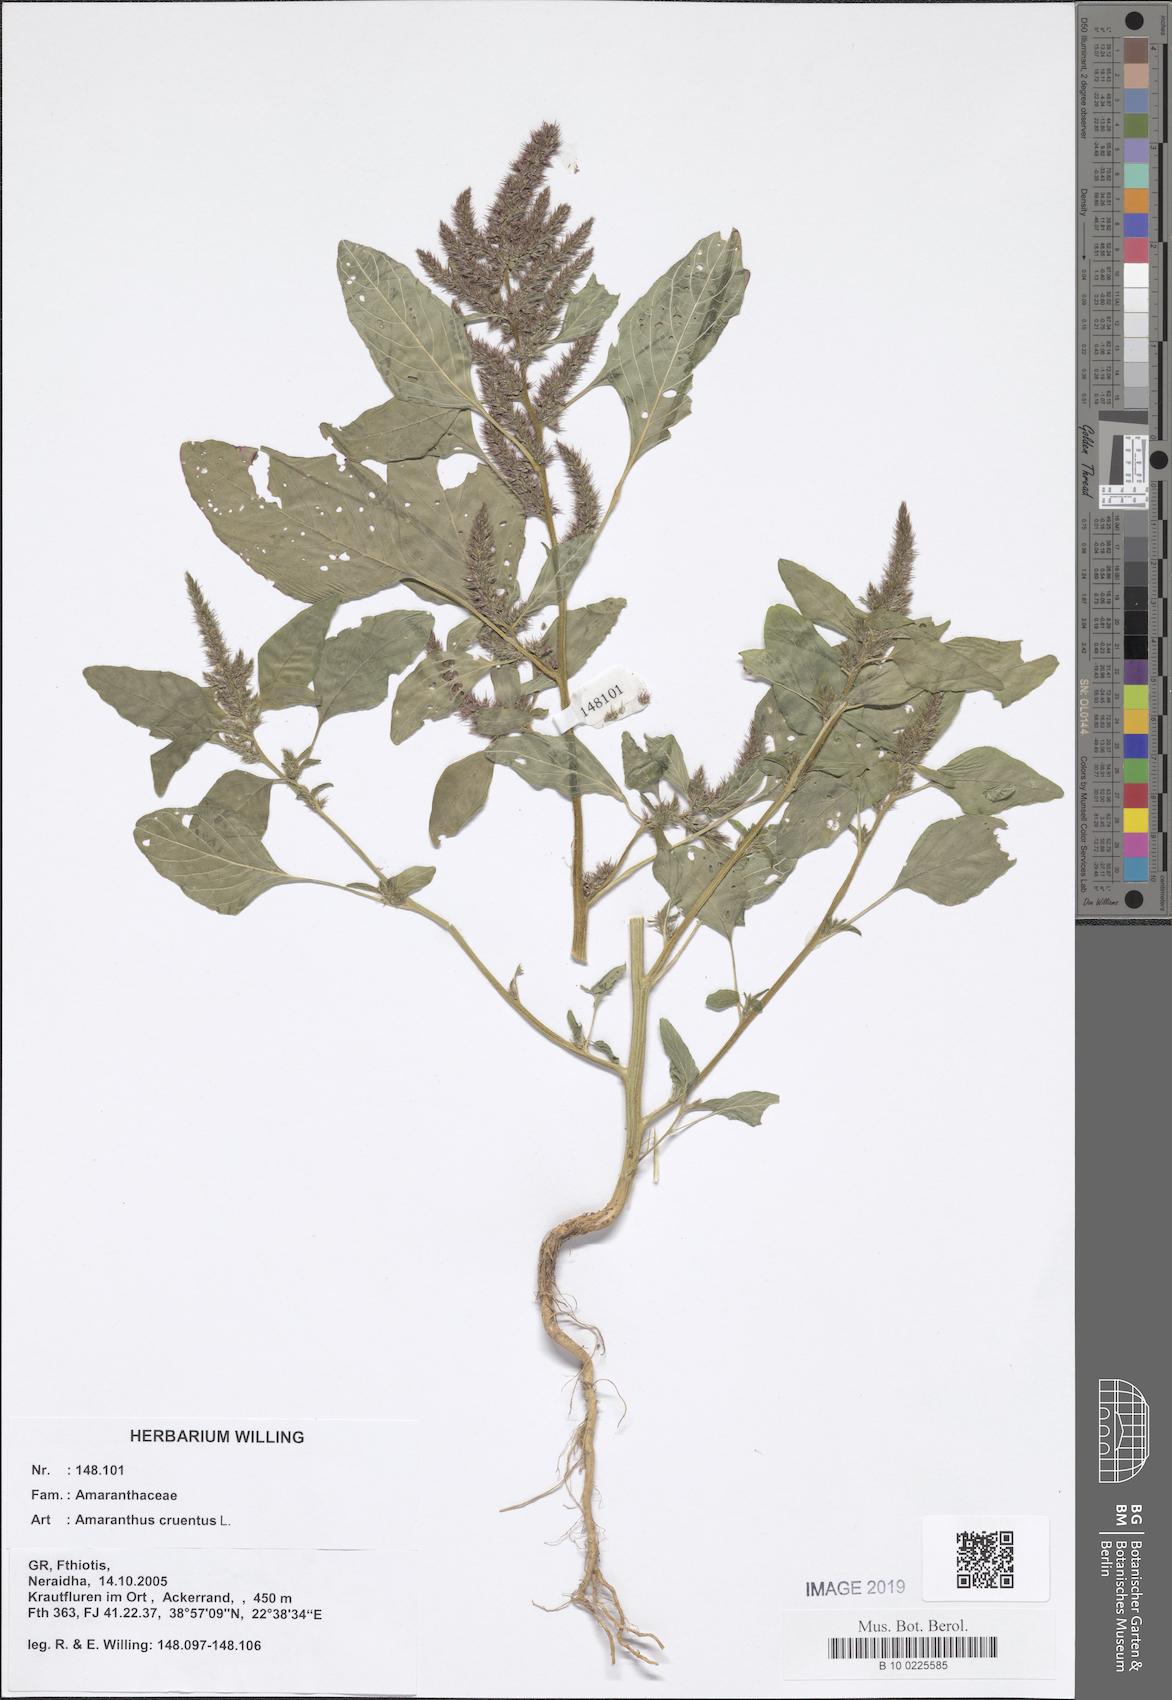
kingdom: Plantae
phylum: Tracheophyta
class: Magnoliopsida
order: Caryophyllales
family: Amaranthaceae
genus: Amaranthus
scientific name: Amaranthus cruentus
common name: Purple amaranth
